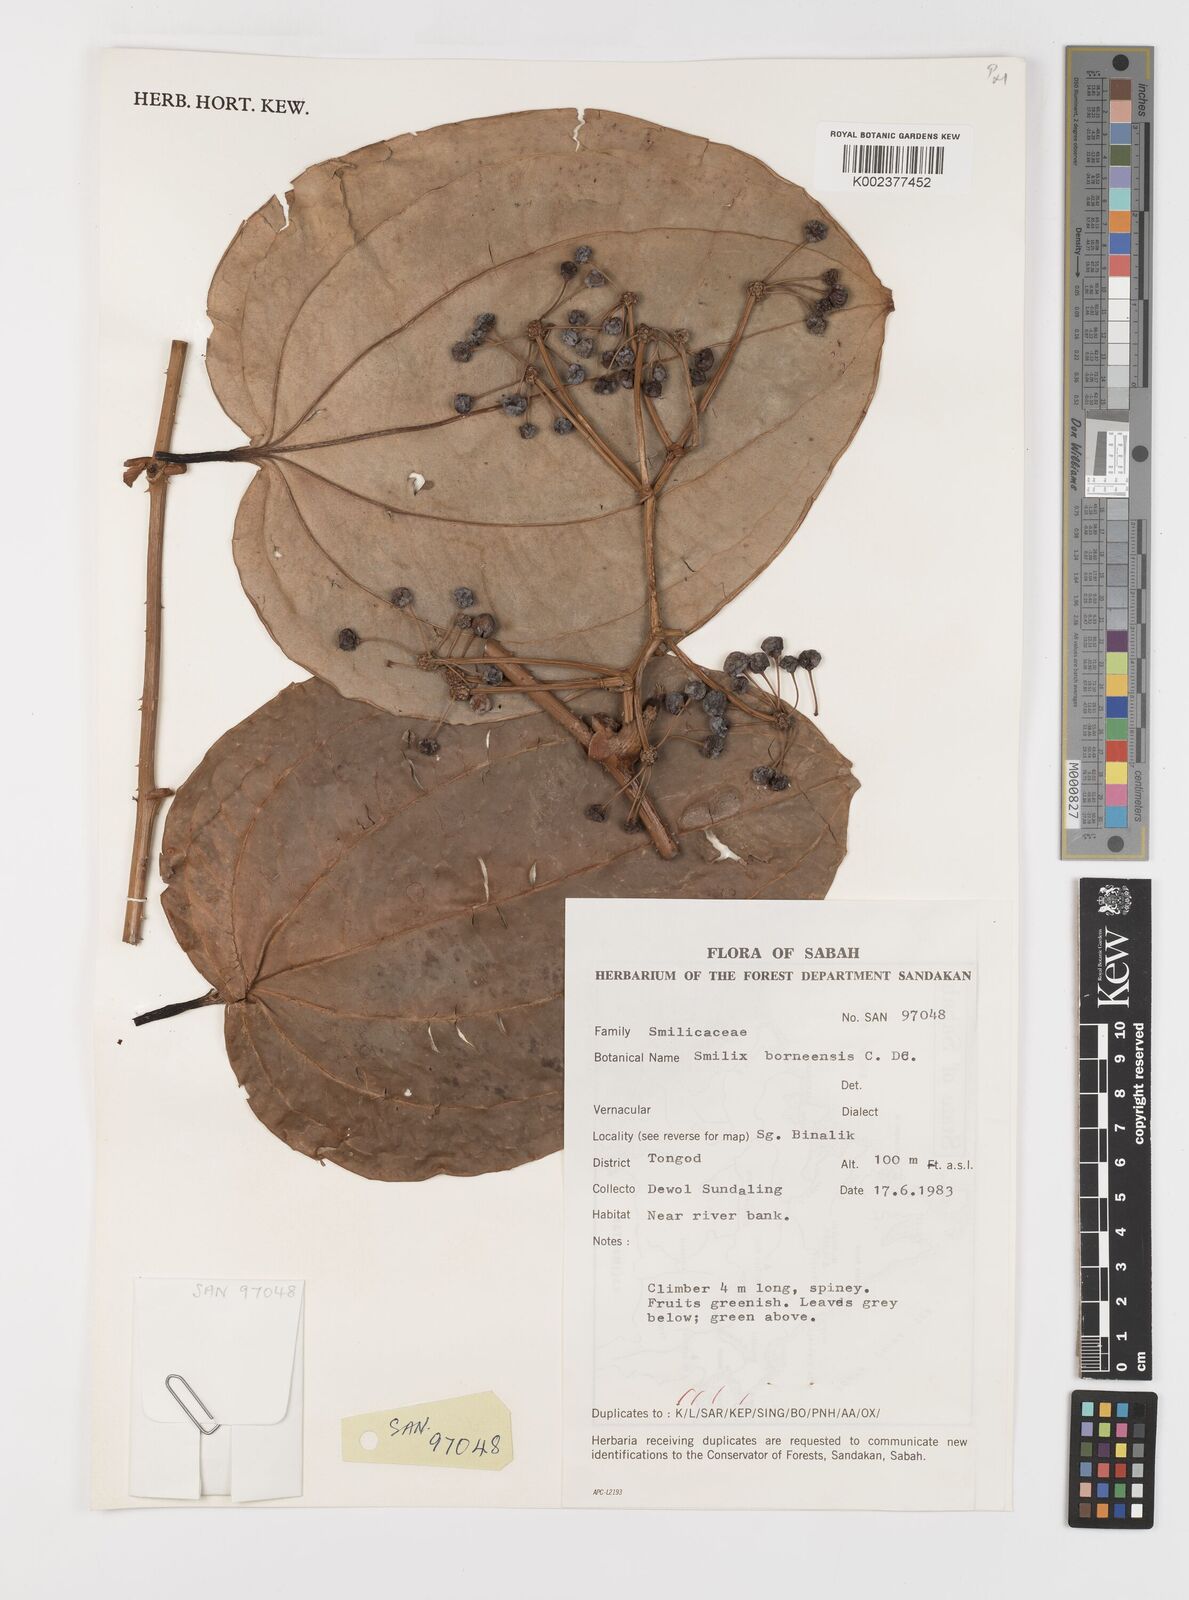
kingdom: Plantae
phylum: Tracheophyta
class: Liliopsida
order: Liliales
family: Smilacaceae
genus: Smilax
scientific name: Smilax borneensis
